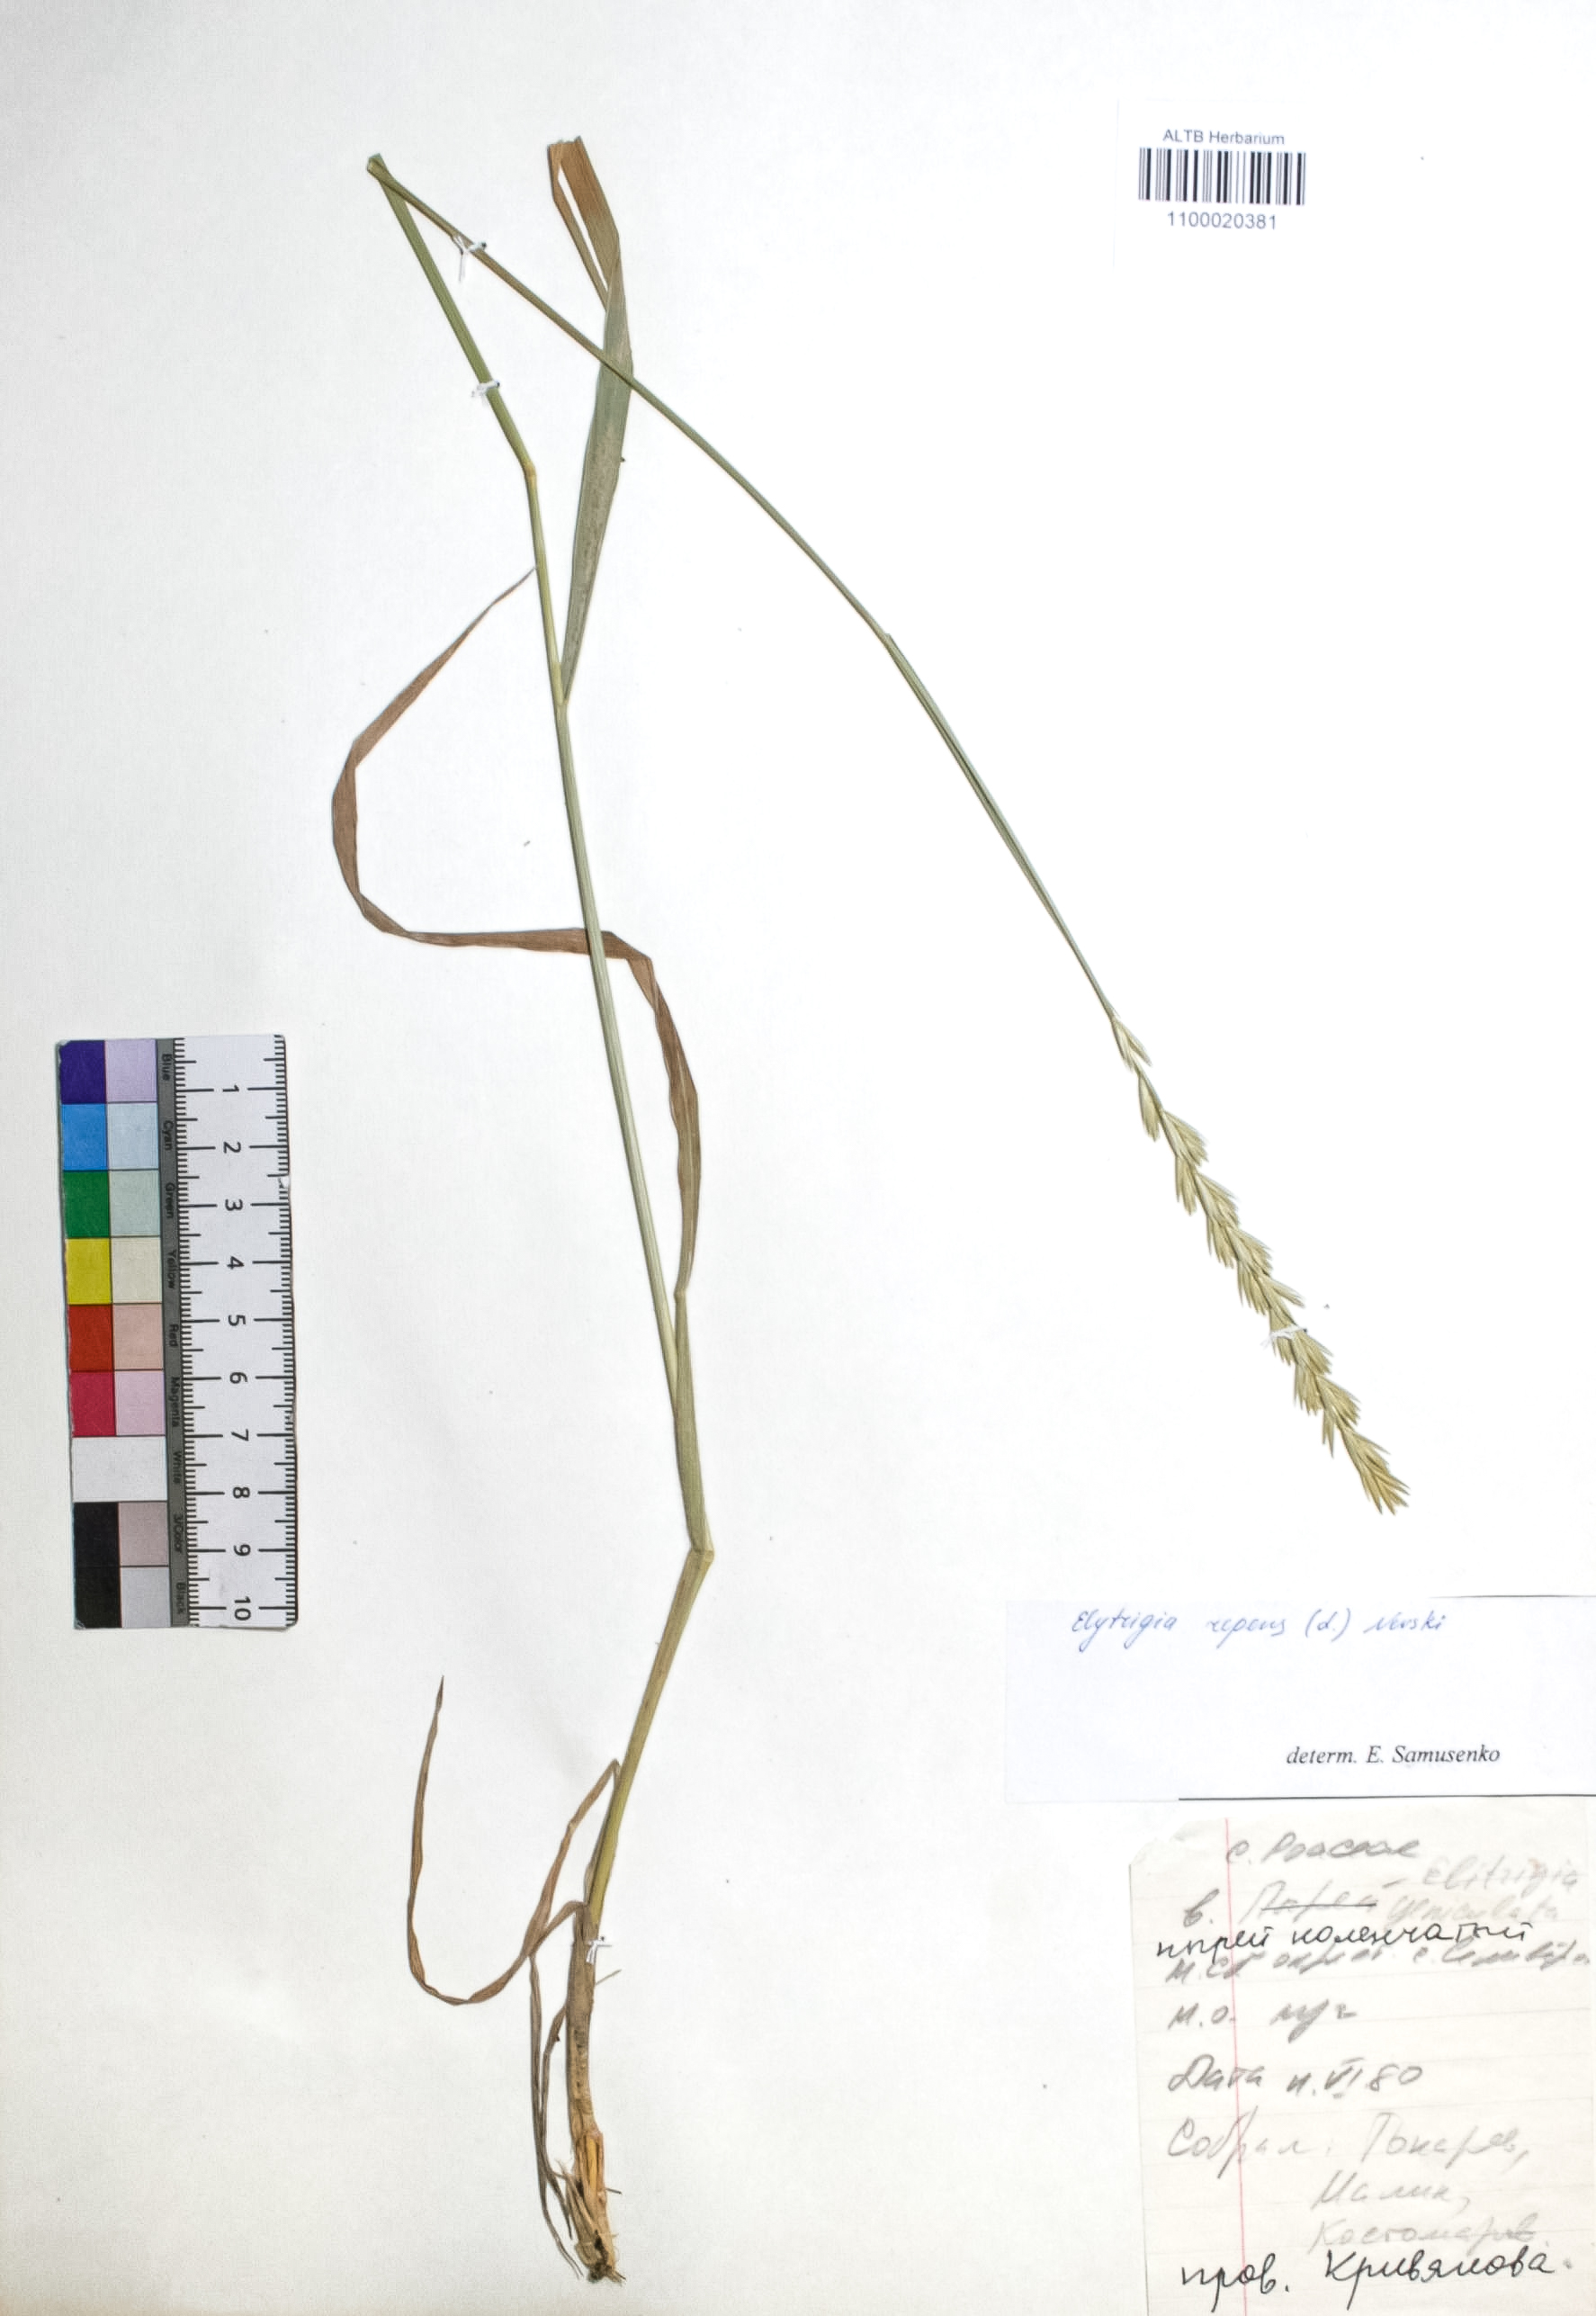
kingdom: Plantae
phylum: Tracheophyta
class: Liliopsida
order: Poales
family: Poaceae
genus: Elymus
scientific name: Elymus repens
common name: Quackgrass
